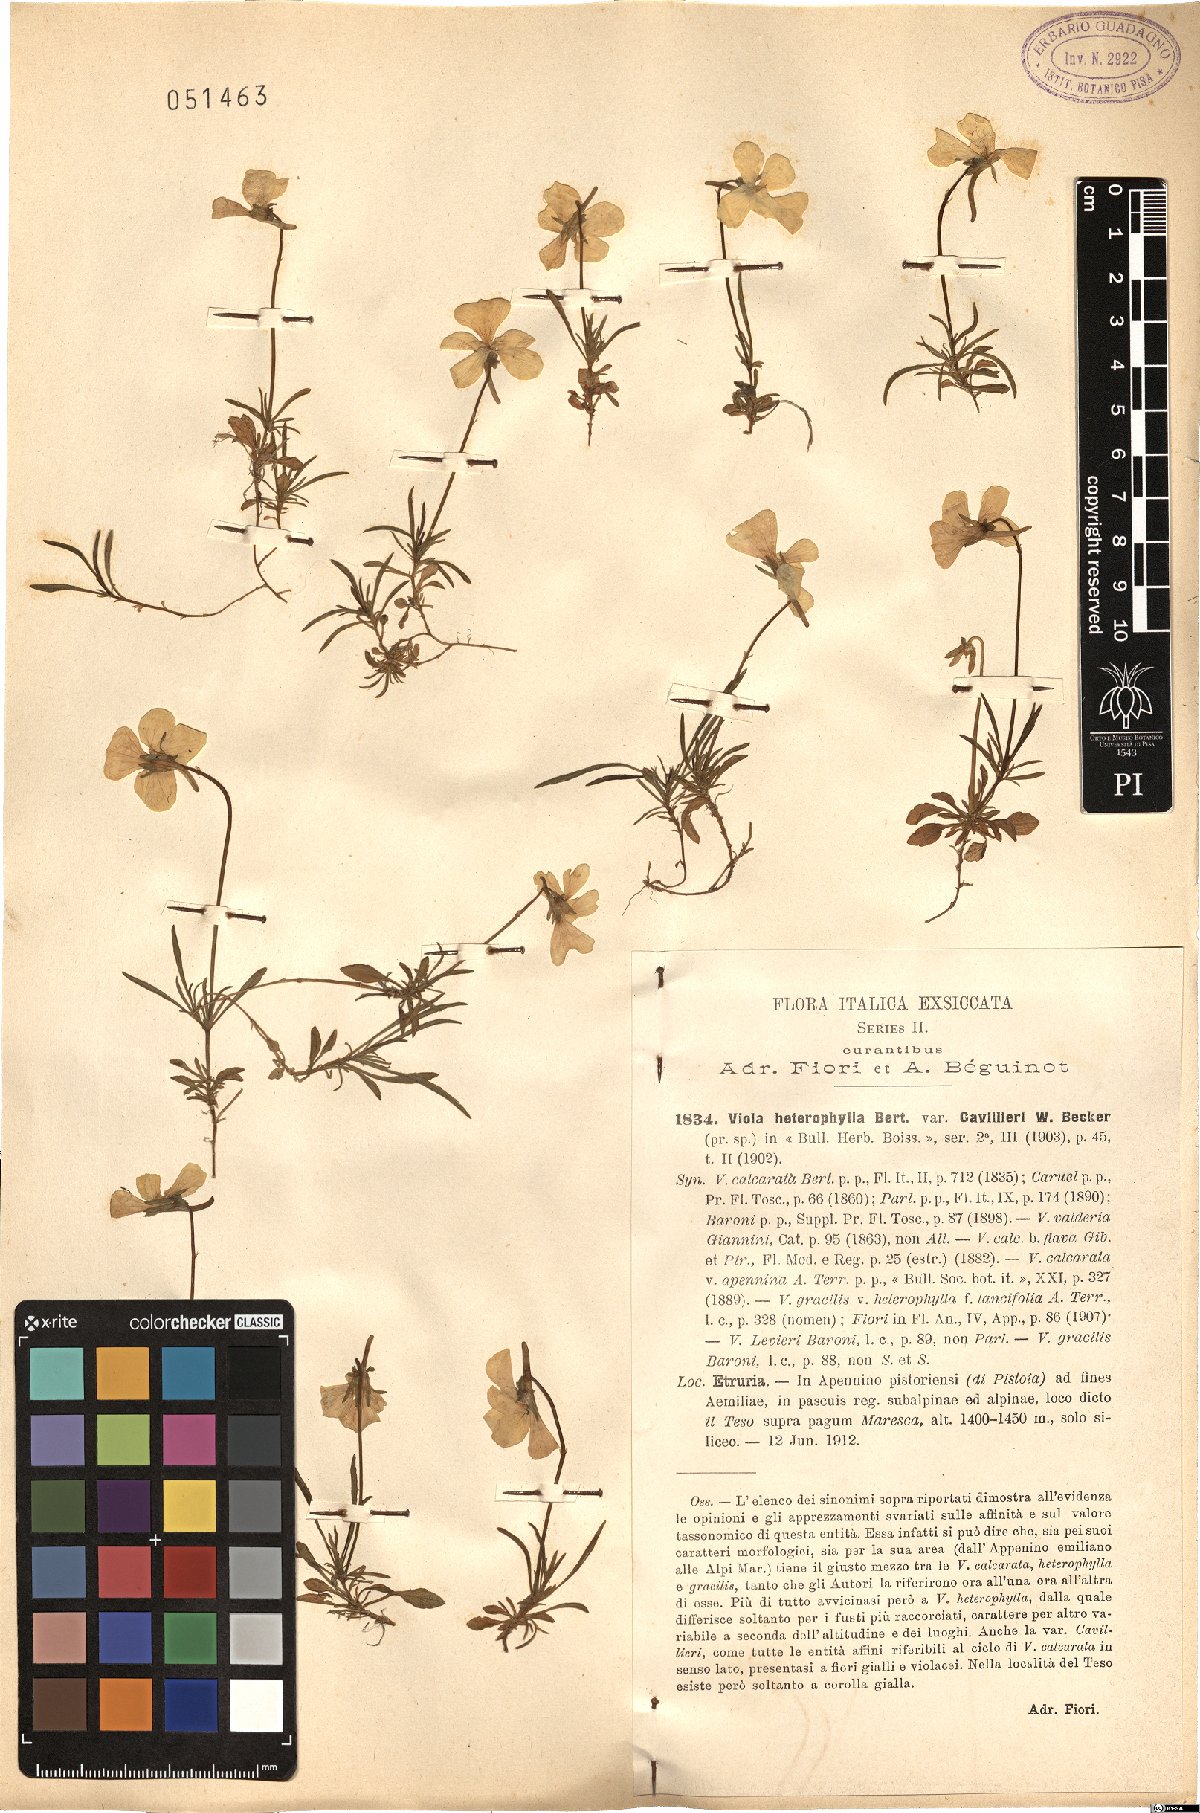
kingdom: Plantae
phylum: Tracheophyta
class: Magnoliopsida
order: Malpighiales
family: Violaceae
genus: Viola
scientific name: Viola calcarata
